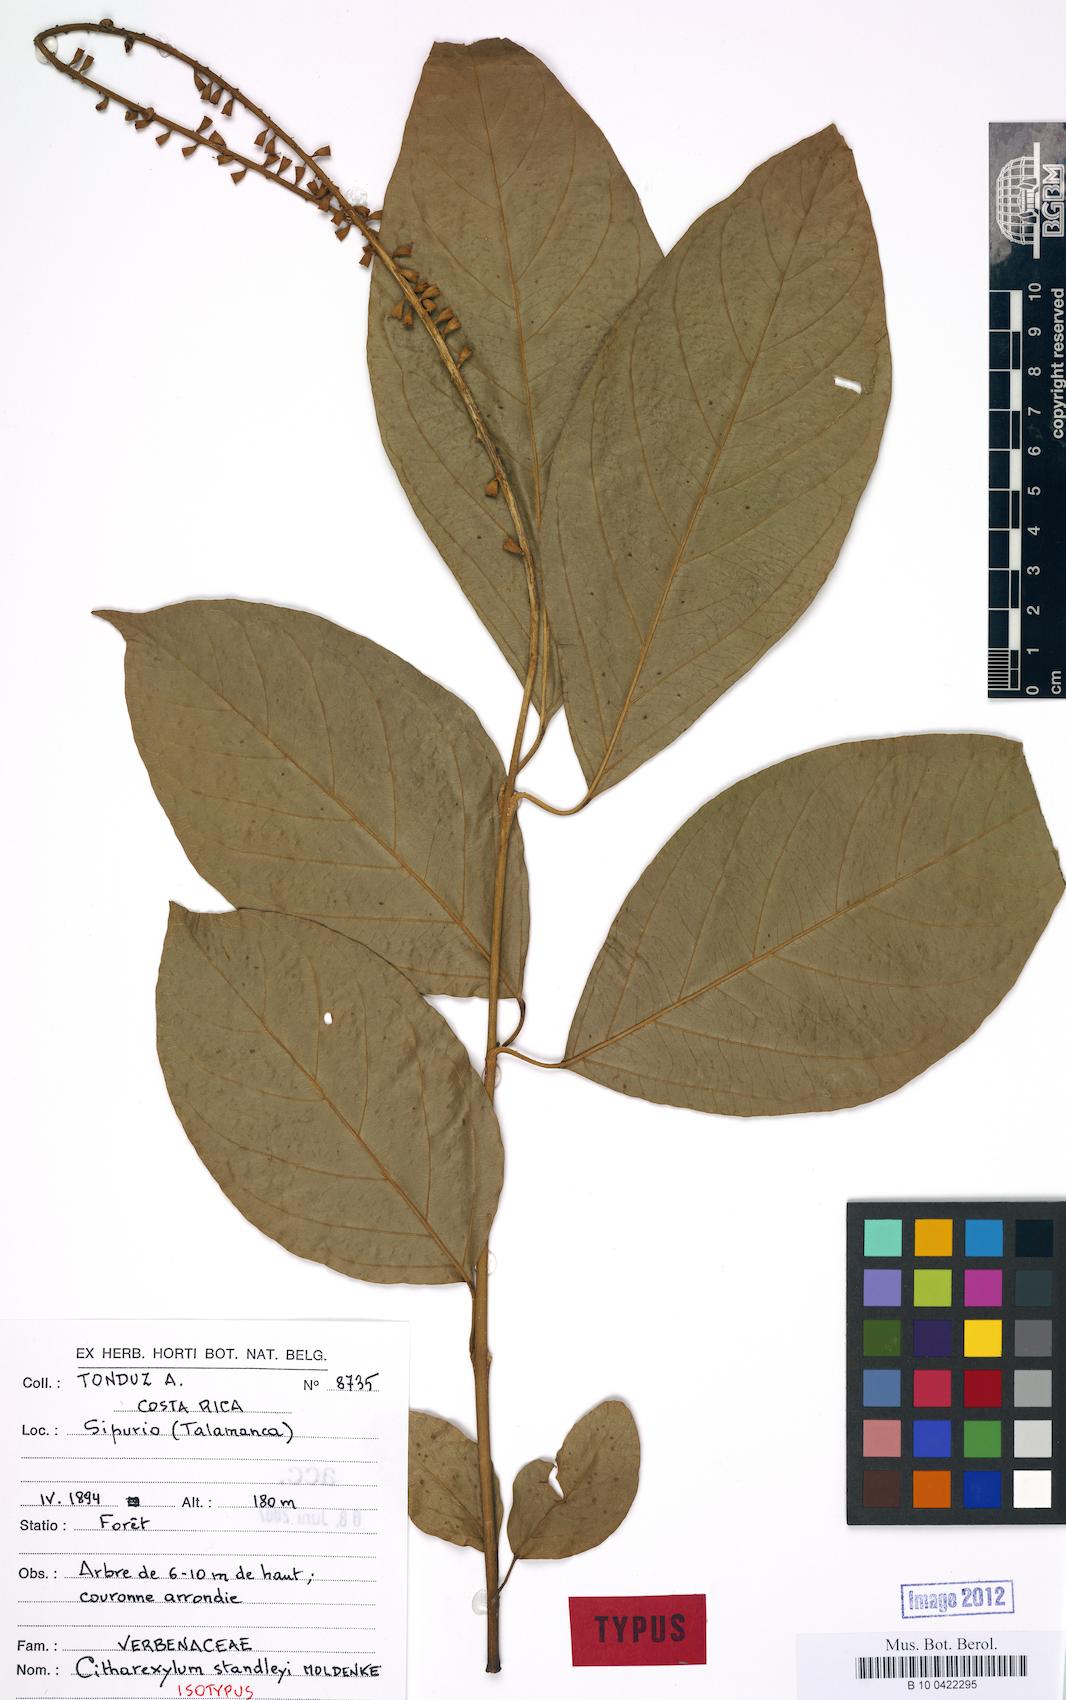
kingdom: Plantae
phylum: Tracheophyta
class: Magnoliopsida
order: Lamiales
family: Verbenaceae
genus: Citharexylum
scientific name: Citharexylum costaricense
